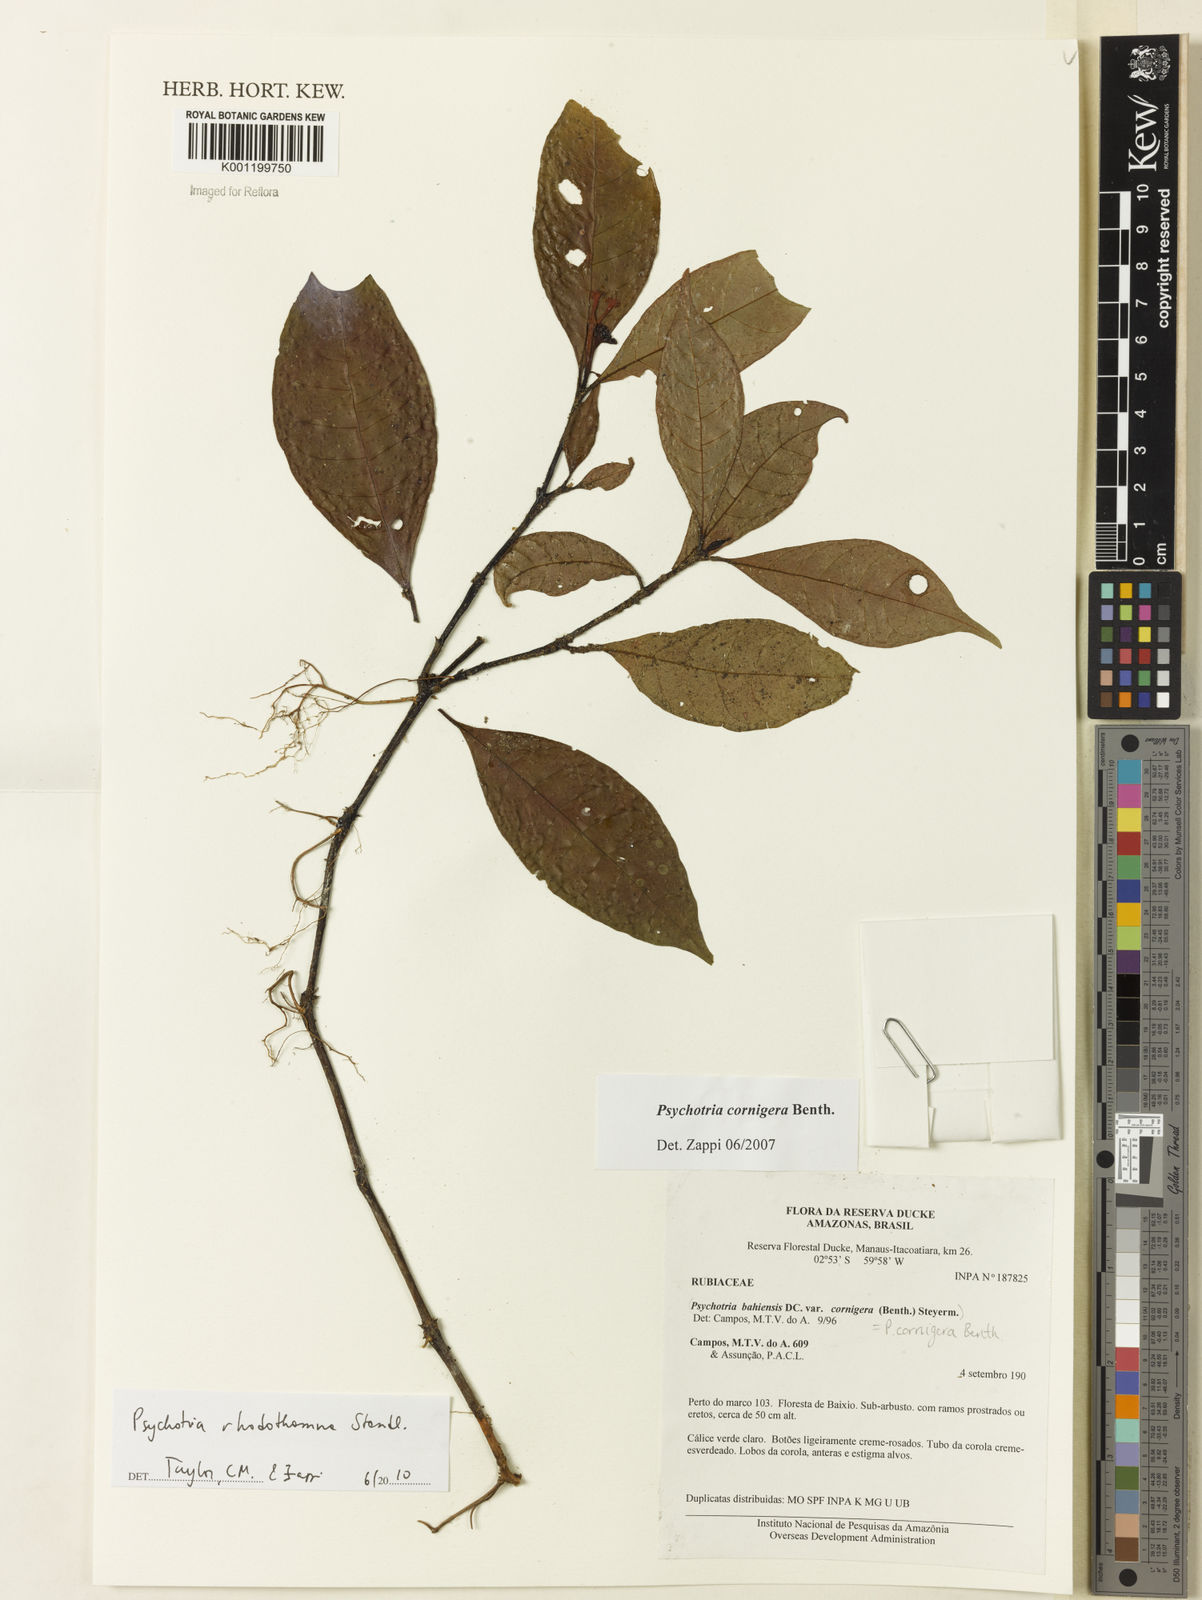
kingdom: Plantae
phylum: Tracheophyta
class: Magnoliopsida
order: Gentianales
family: Rubiaceae
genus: Palicourea
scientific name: Palicourea rhodothamna
